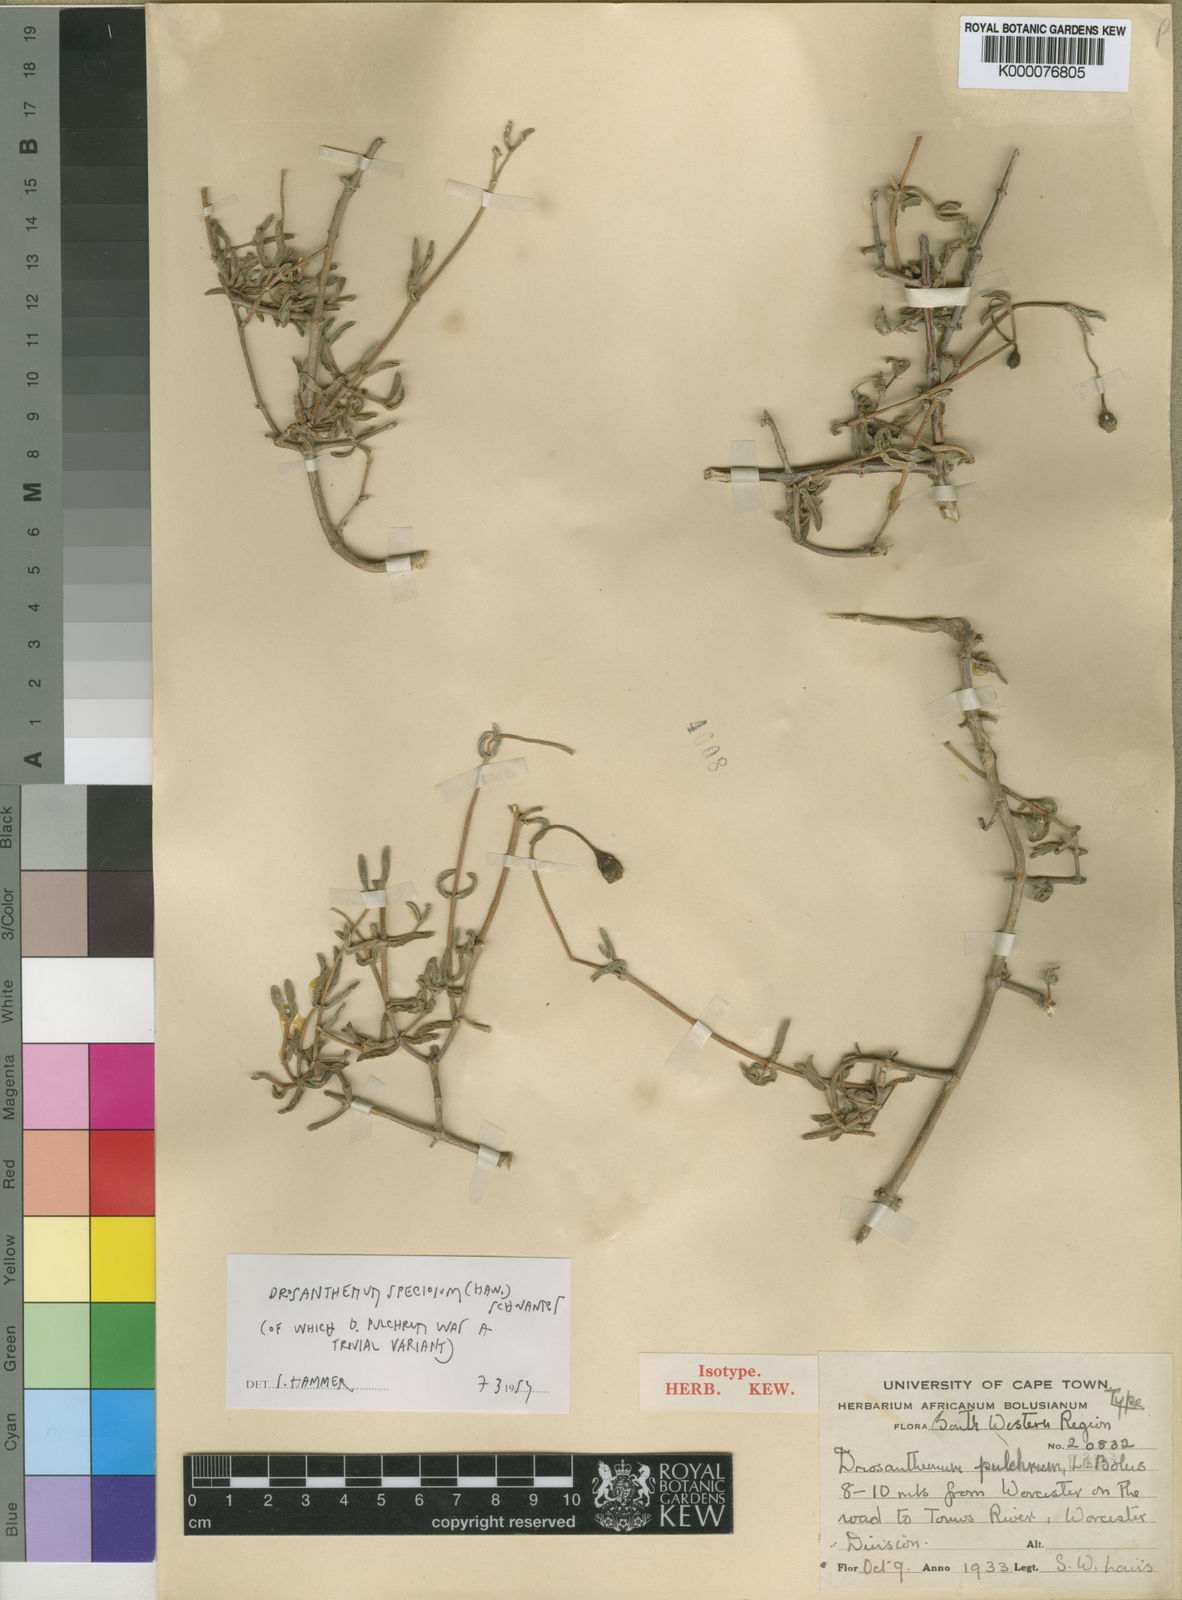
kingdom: Plantae
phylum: Tracheophyta
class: Magnoliopsida
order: Caryophyllales
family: Aizoaceae
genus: Drosanthemum
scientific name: Drosanthemum pulchrum
